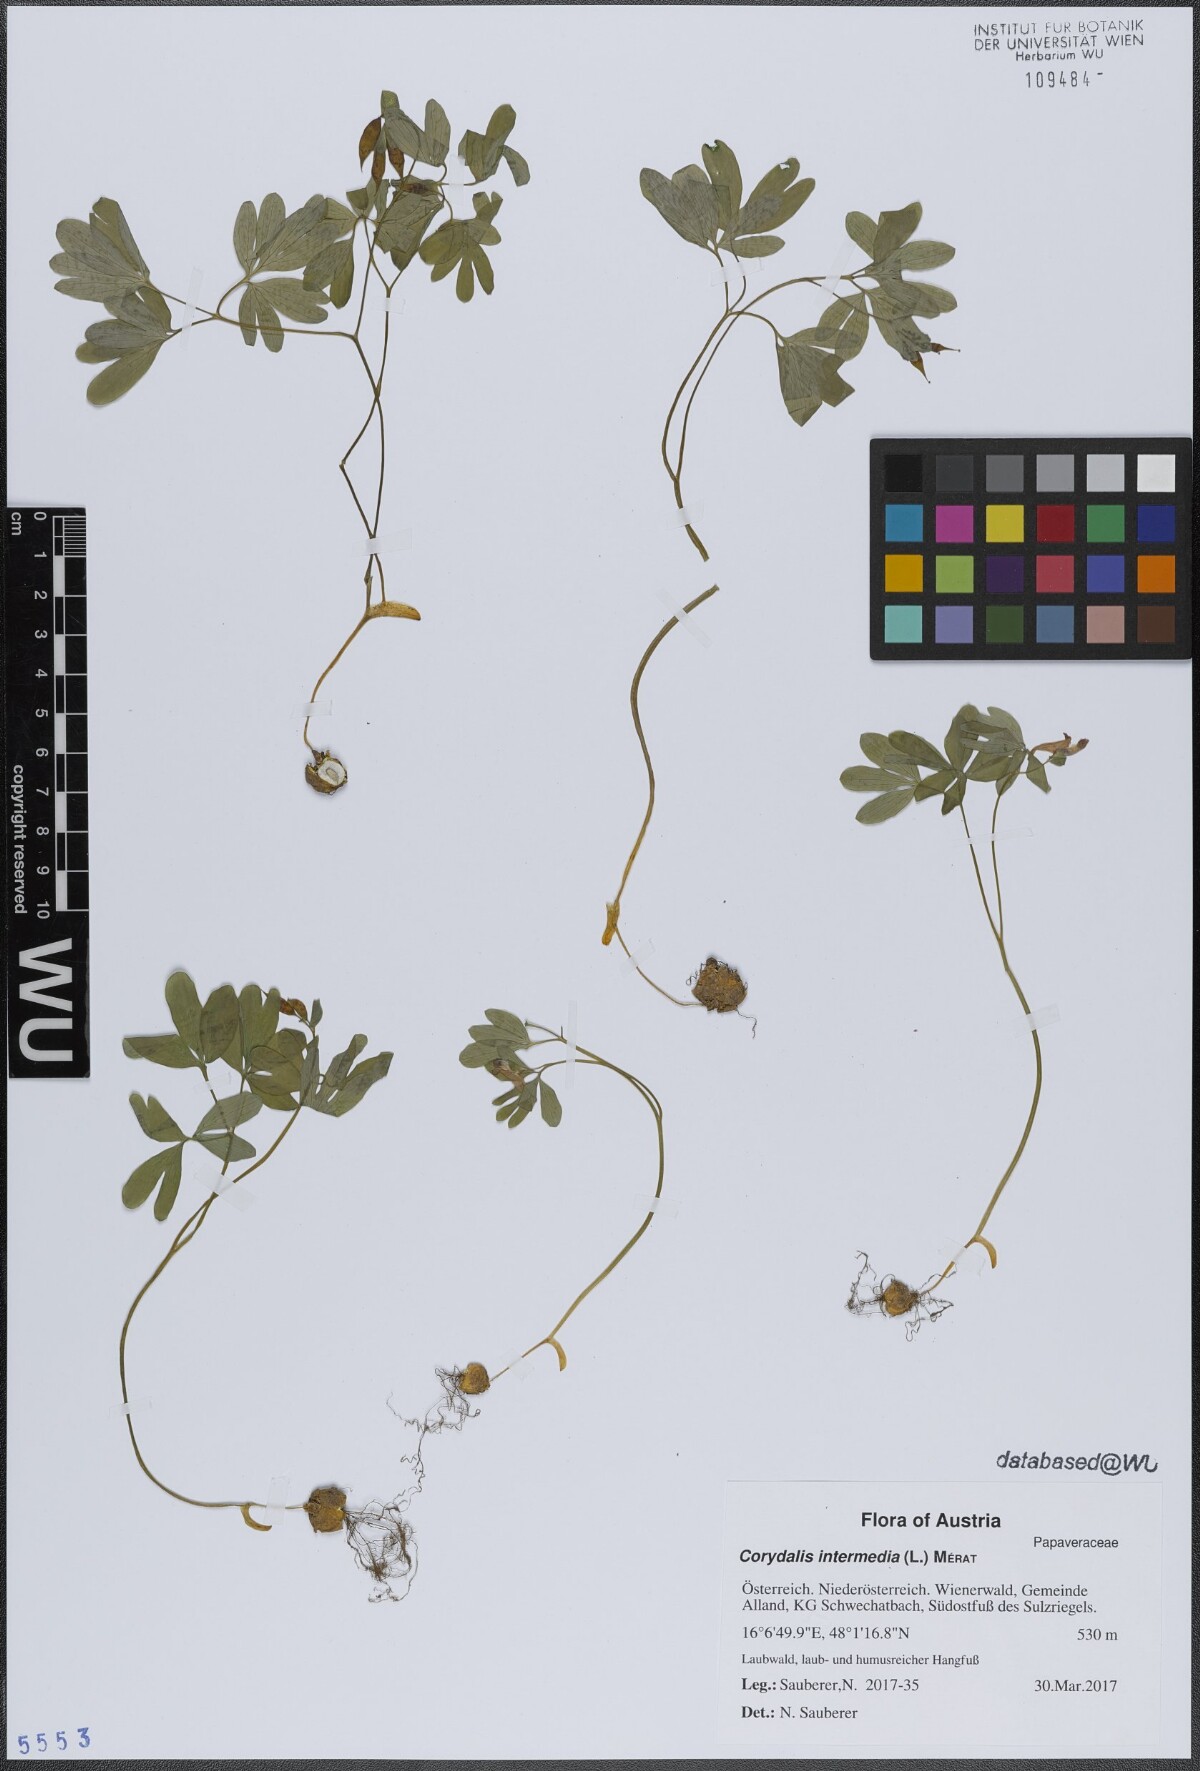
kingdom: Plantae
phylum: Tracheophyta
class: Magnoliopsida
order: Ranunculales
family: Papaveraceae
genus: Corydalis
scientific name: Corydalis intermedia
